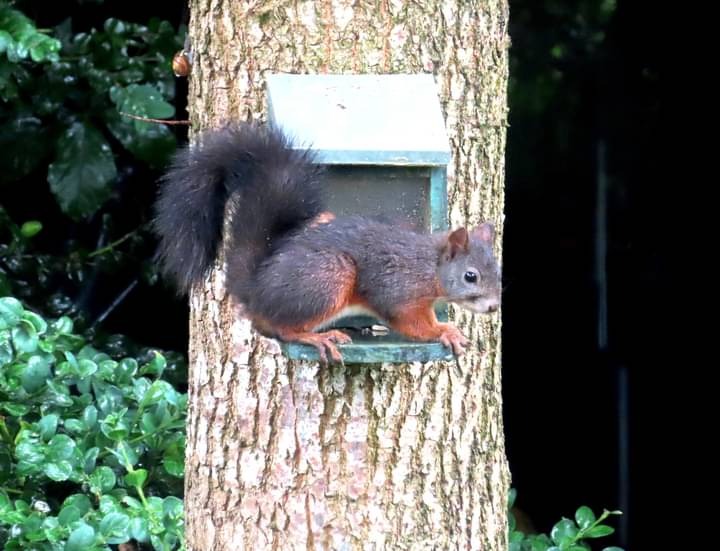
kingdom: Animalia
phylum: Chordata
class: Mammalia
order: Rodentia
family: Sciuridae
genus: Sciurus
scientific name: Sciurus vulgaris
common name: Egern
